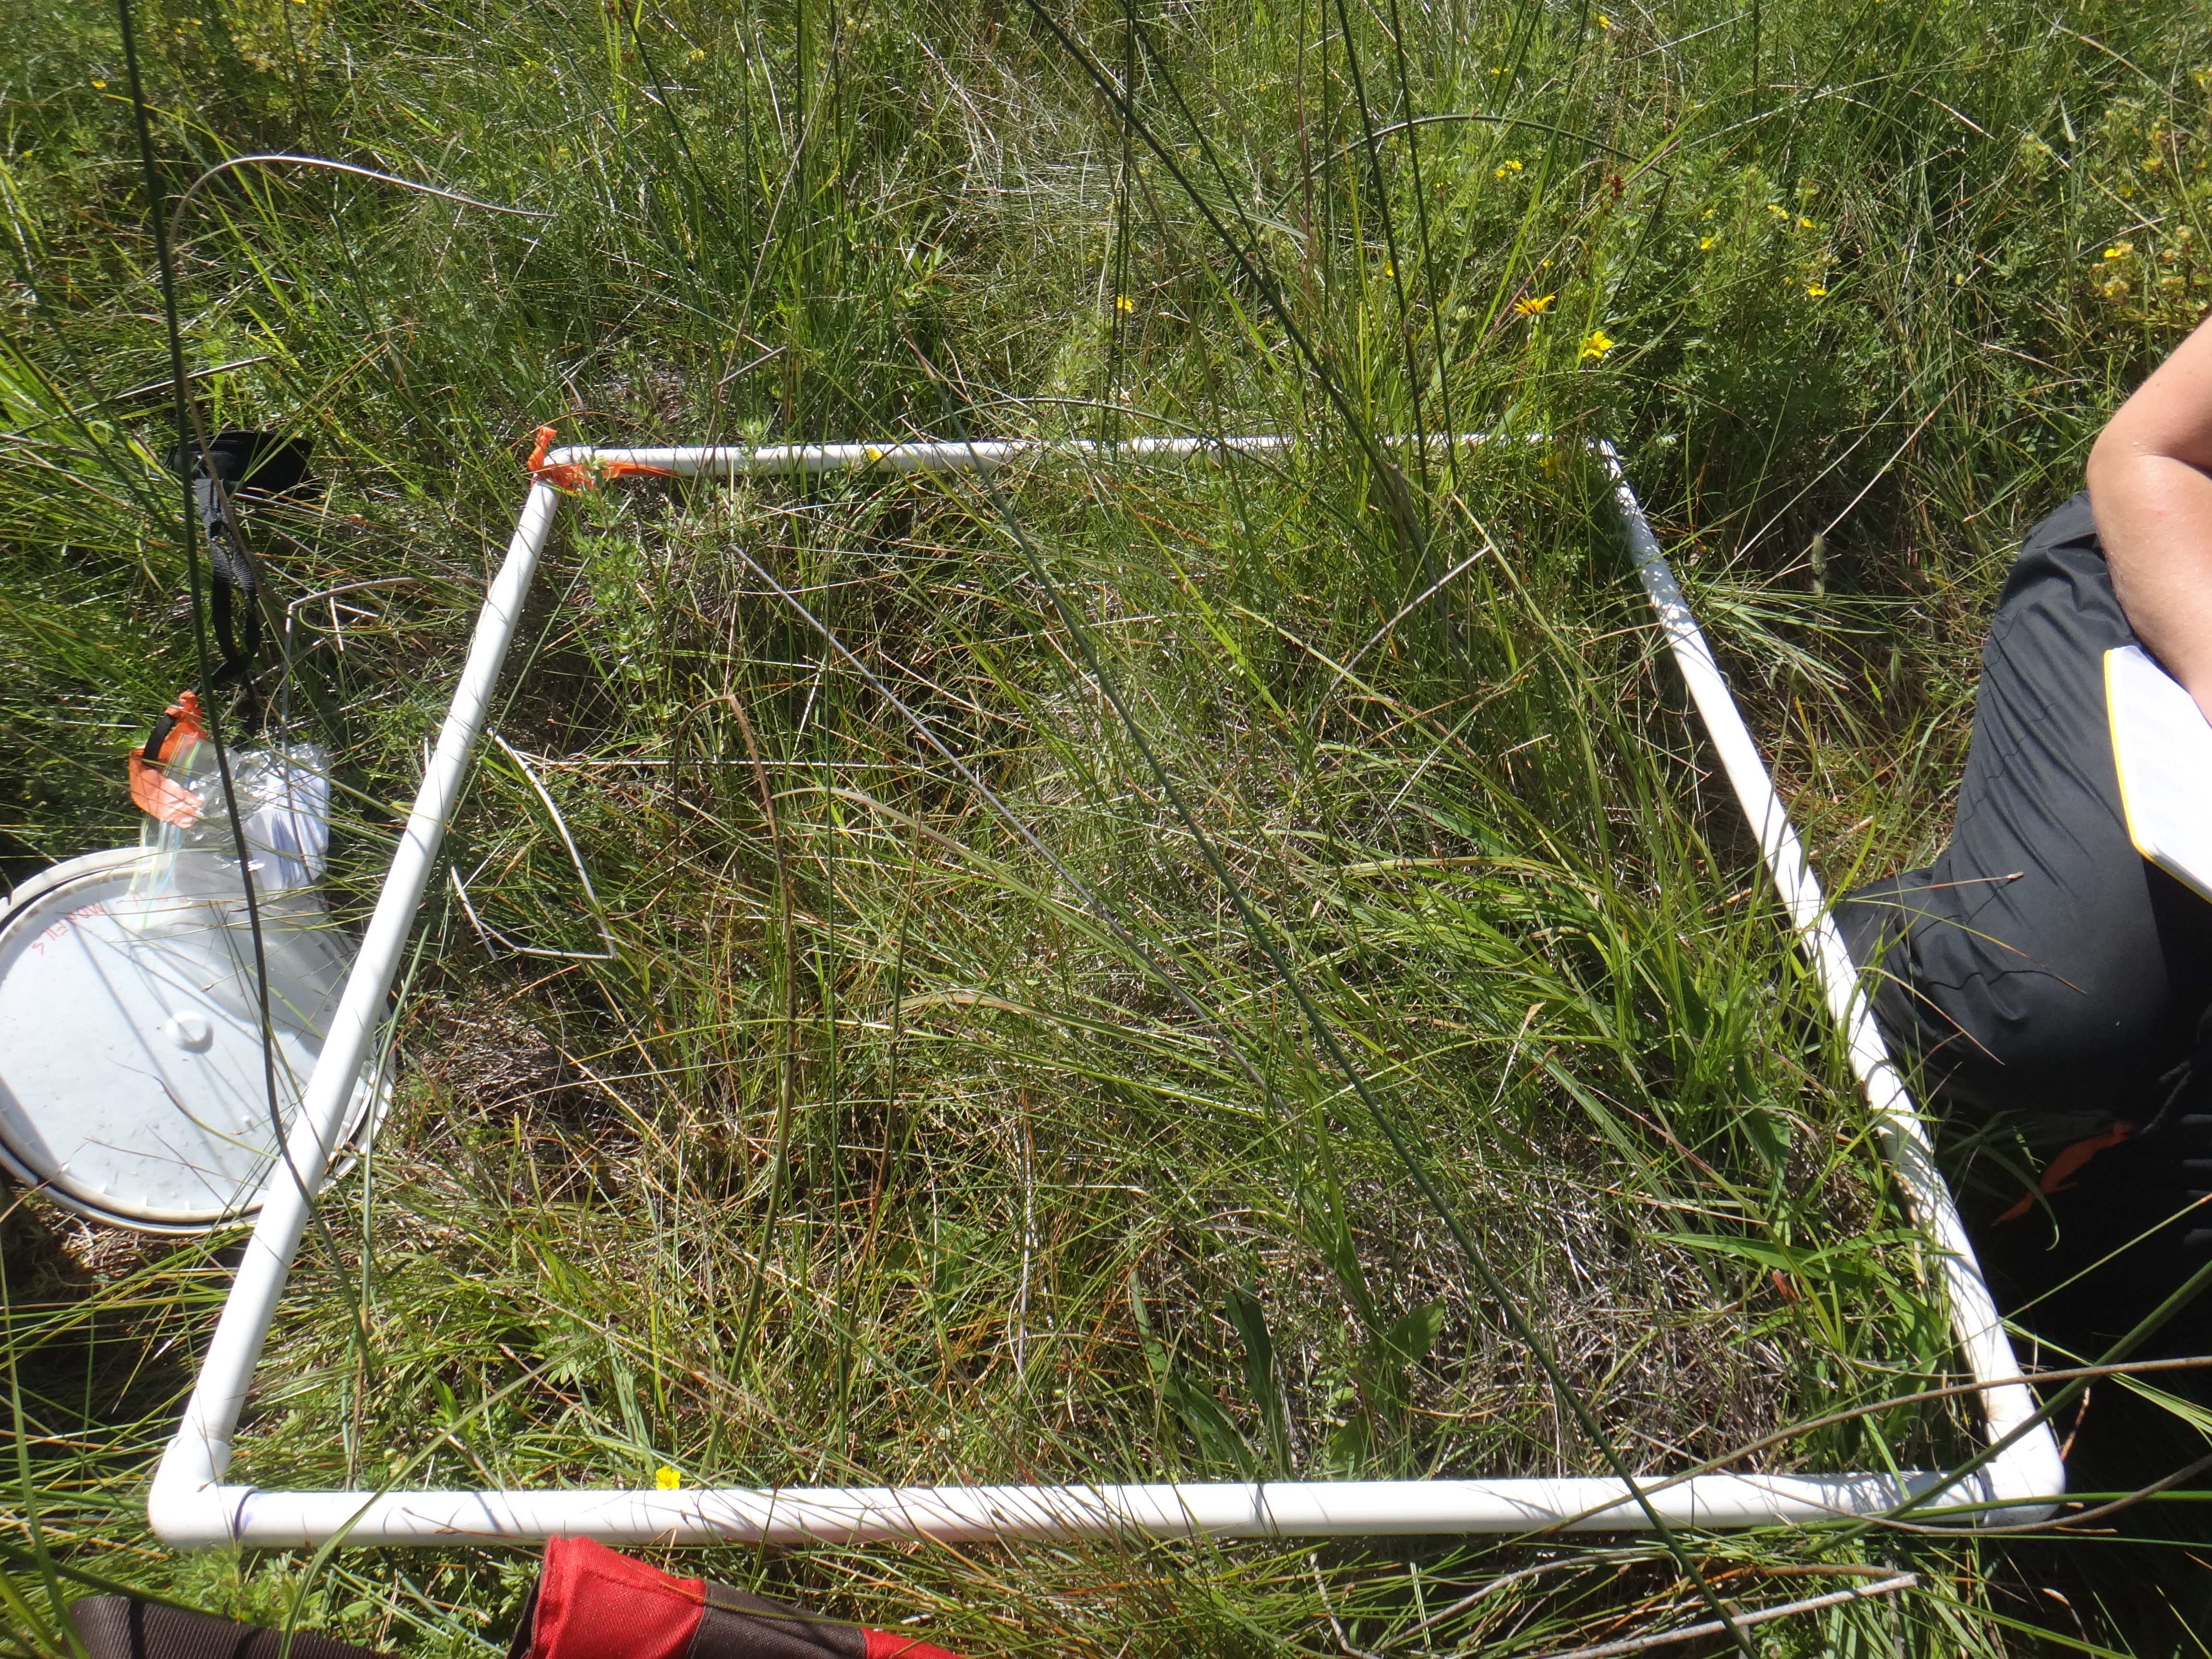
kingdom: Plantae
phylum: Tracheophyta
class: Magnoliopsida
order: Asterales
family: Asteraceae
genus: Solidago
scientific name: Solidago ohioensis
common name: Ohio goldenrod
